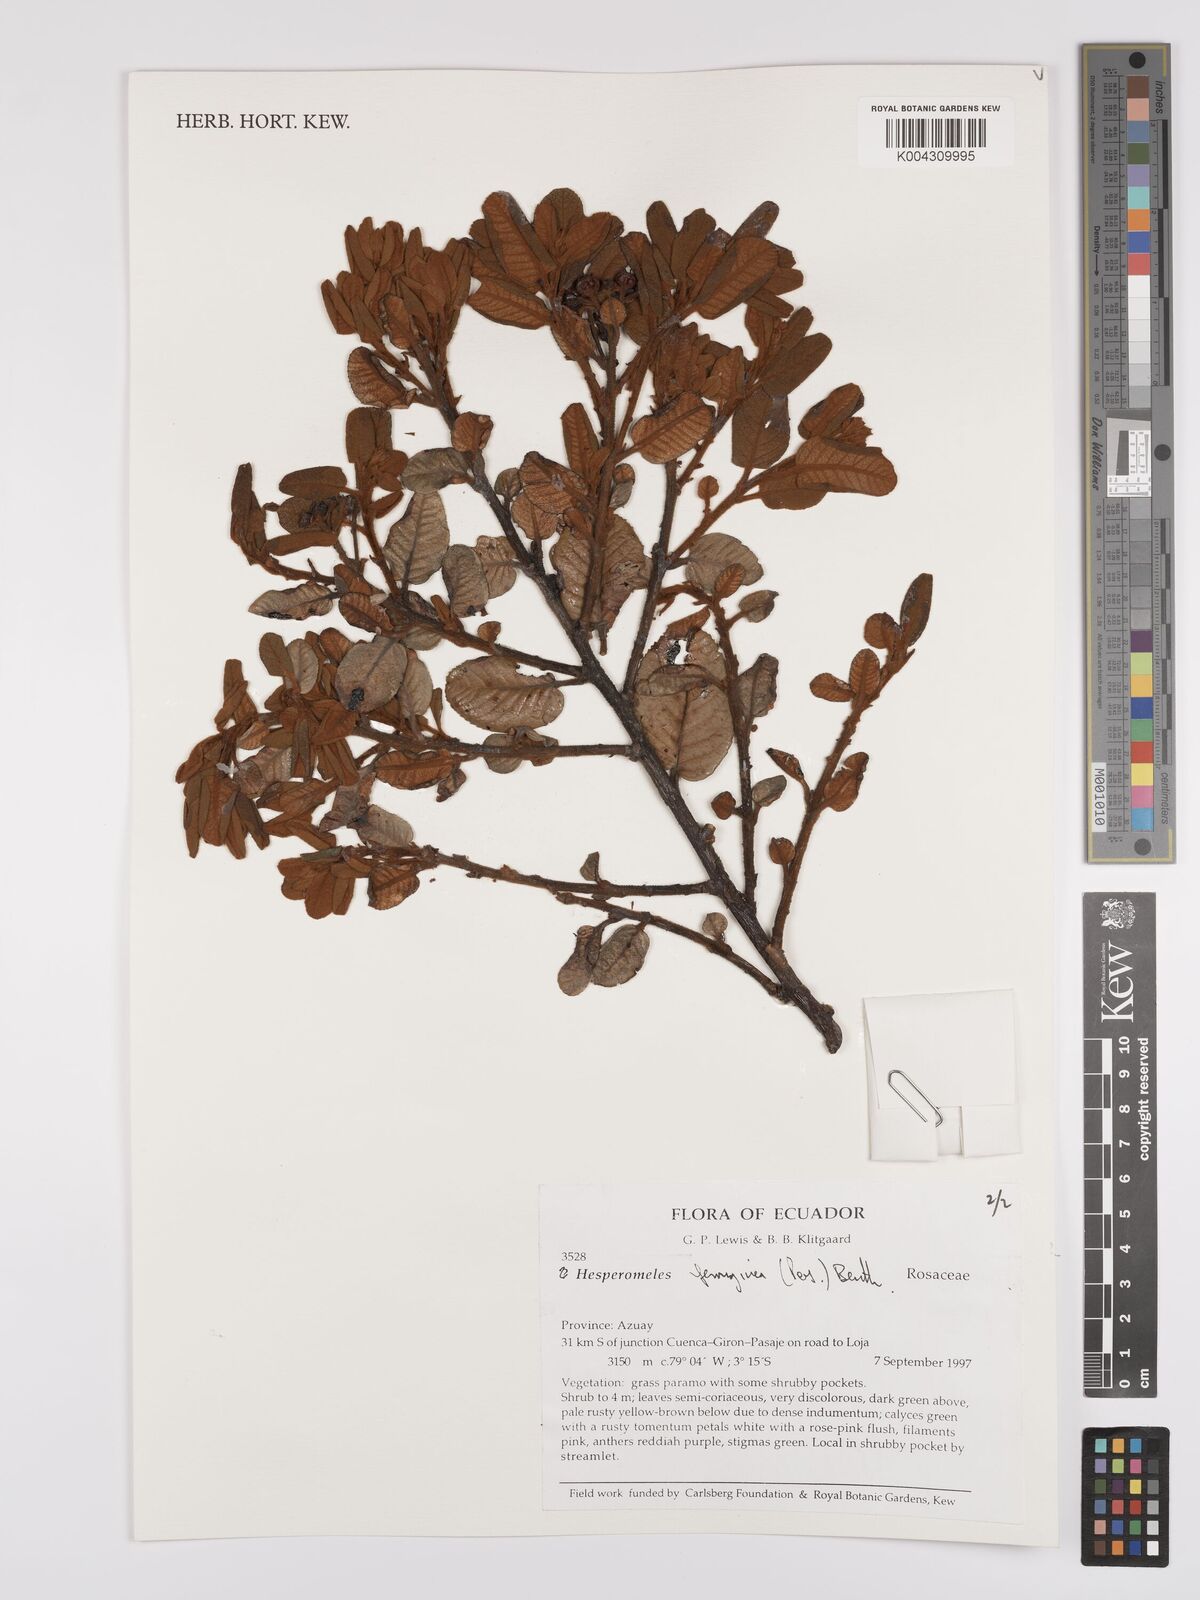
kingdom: Plantae
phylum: Tracheophyta
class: Magnoliopsida
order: Rosales
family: Rosaceae
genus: Hesperomeles
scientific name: Hesperomeles ferruginea
